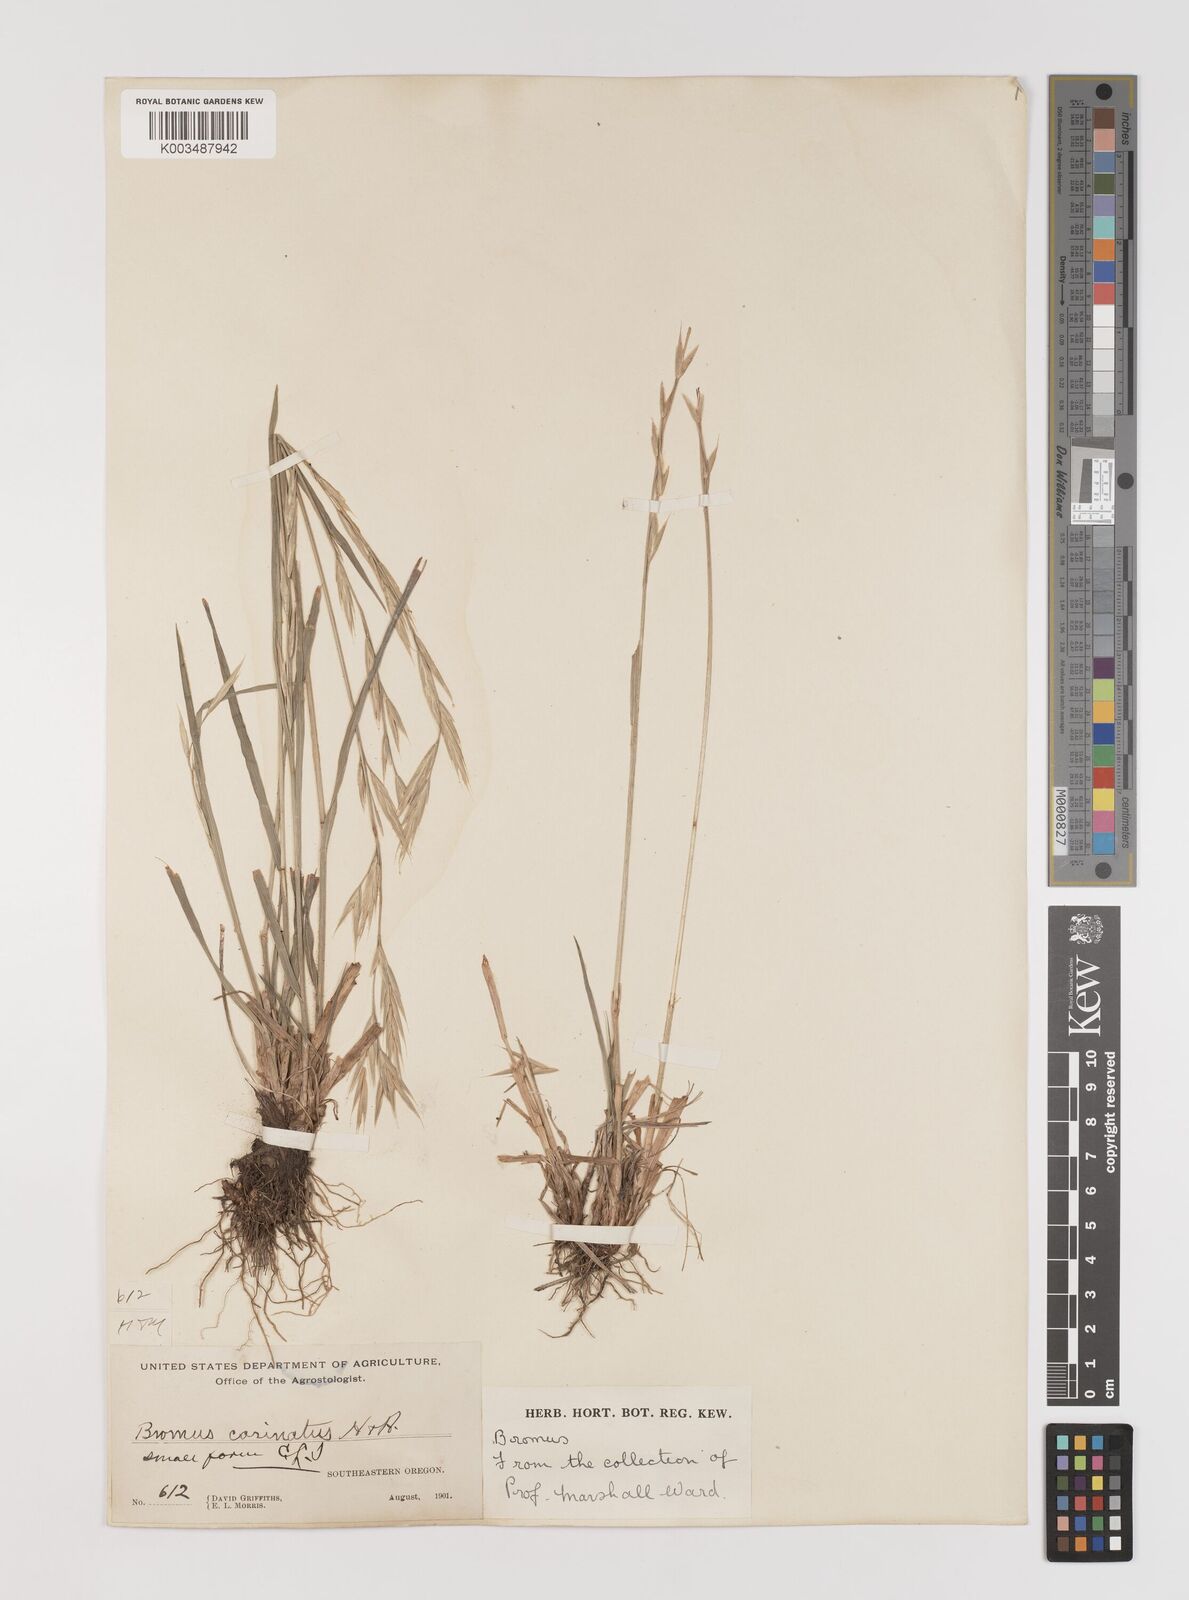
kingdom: Plantae
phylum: Tracheophyta
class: Liliopsida
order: Poales
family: Poaceae
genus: Bromus
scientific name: Bromus carinatus
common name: Mountain brome
